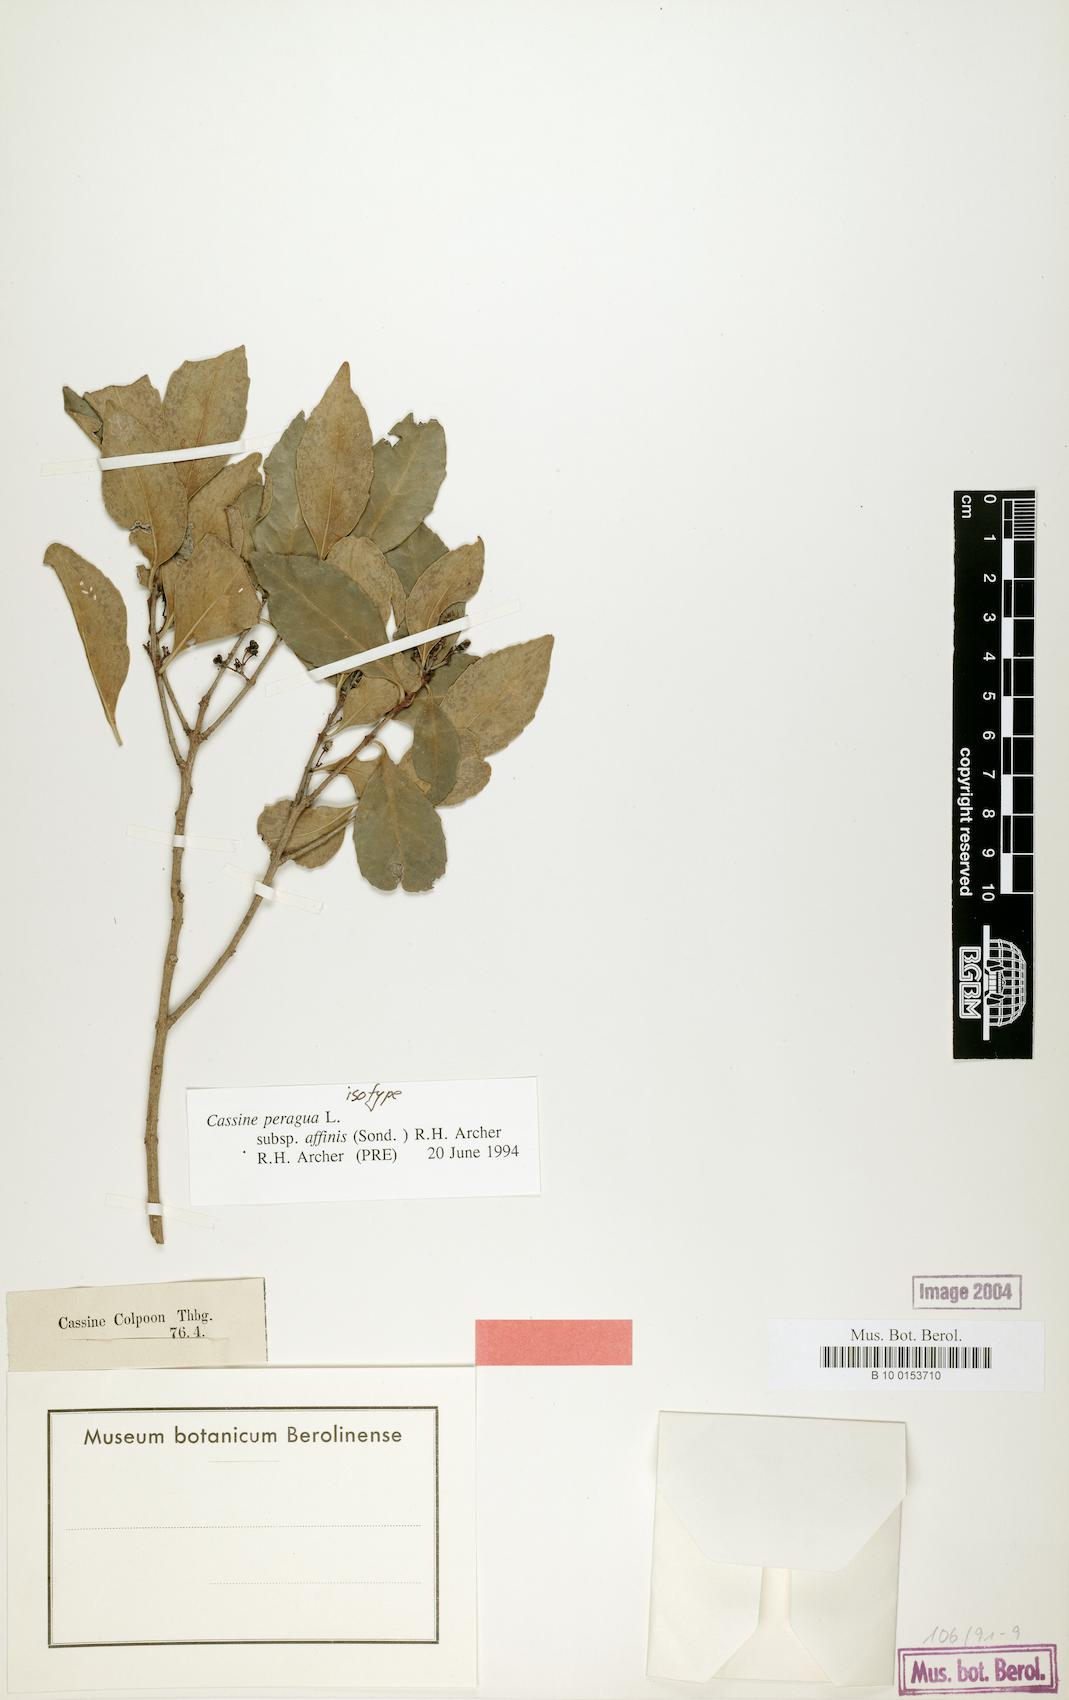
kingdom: Plantae
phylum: Tracheophyta
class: Magnoliopsida
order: Celastrales
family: Celastraceae
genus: Cassine
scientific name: Cassine peragua
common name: Cape saffron
